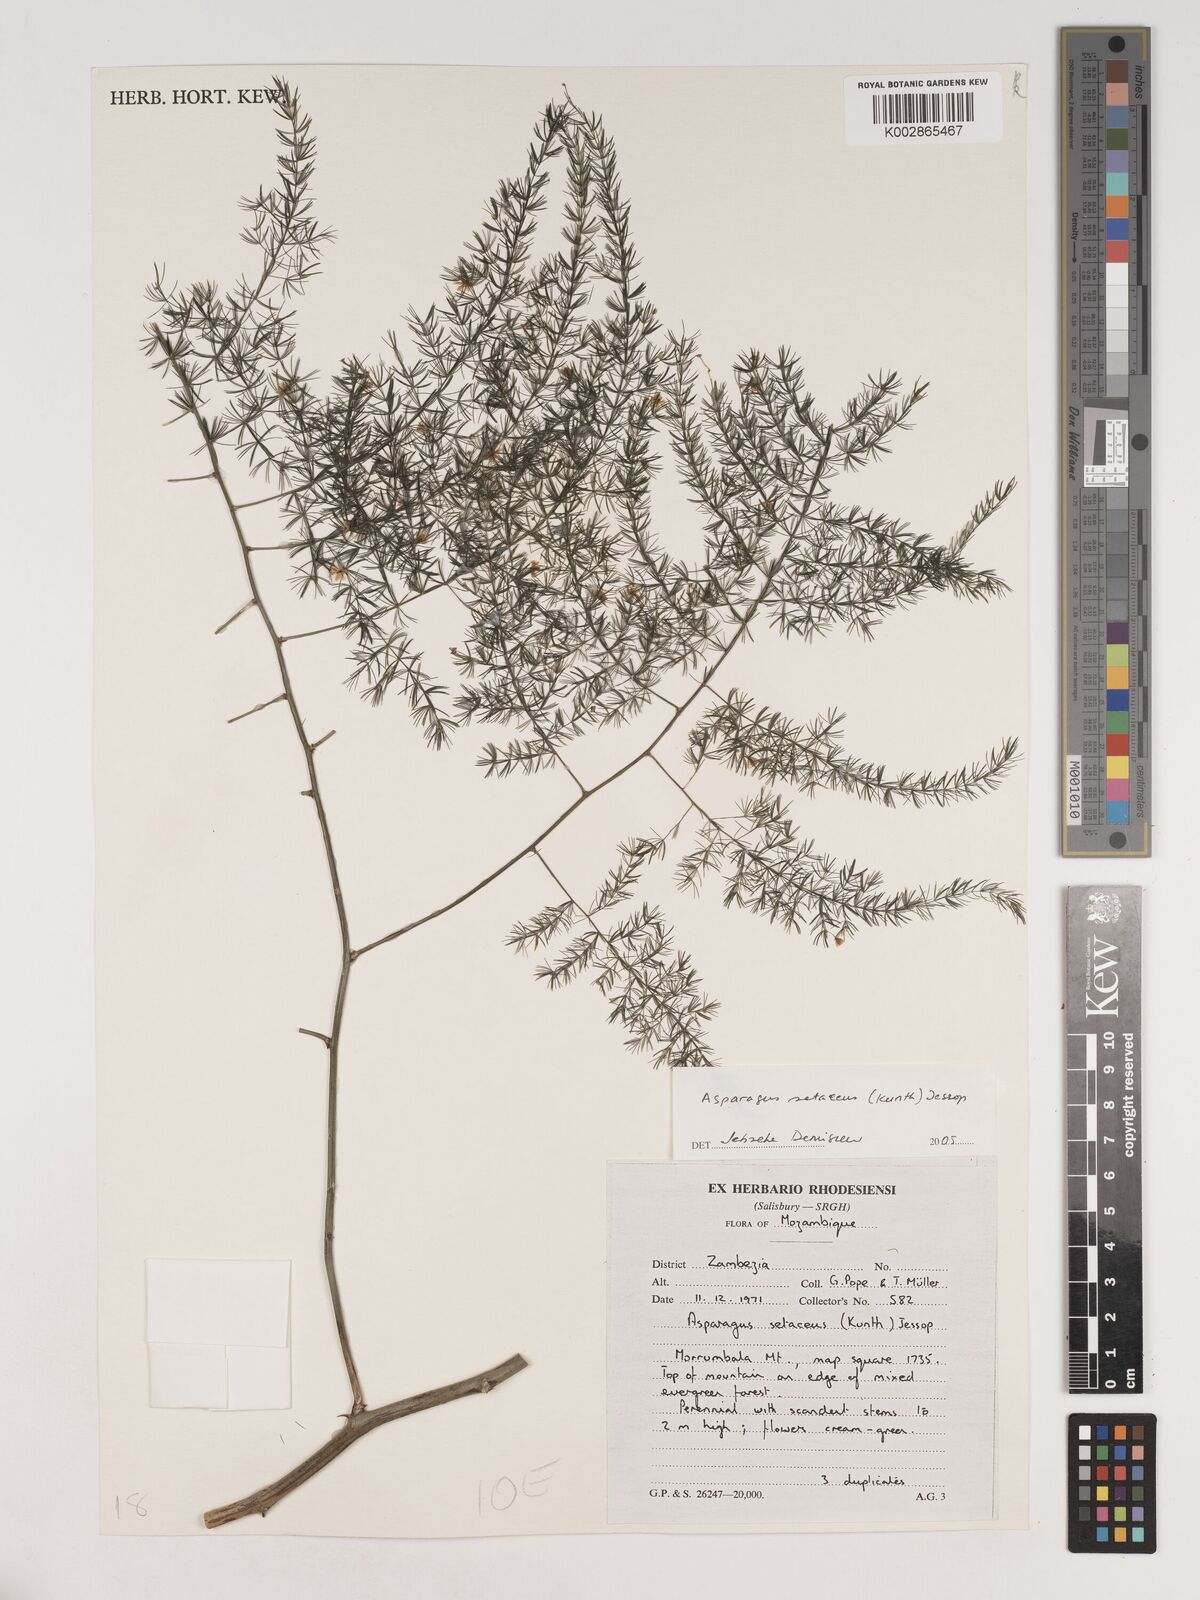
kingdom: Plantae
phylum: Tracheophyta
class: Liliopsida
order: Asparagales
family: Asparagaceae
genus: Asparagus
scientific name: Asparagus setaceus
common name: Common asparagus fern
